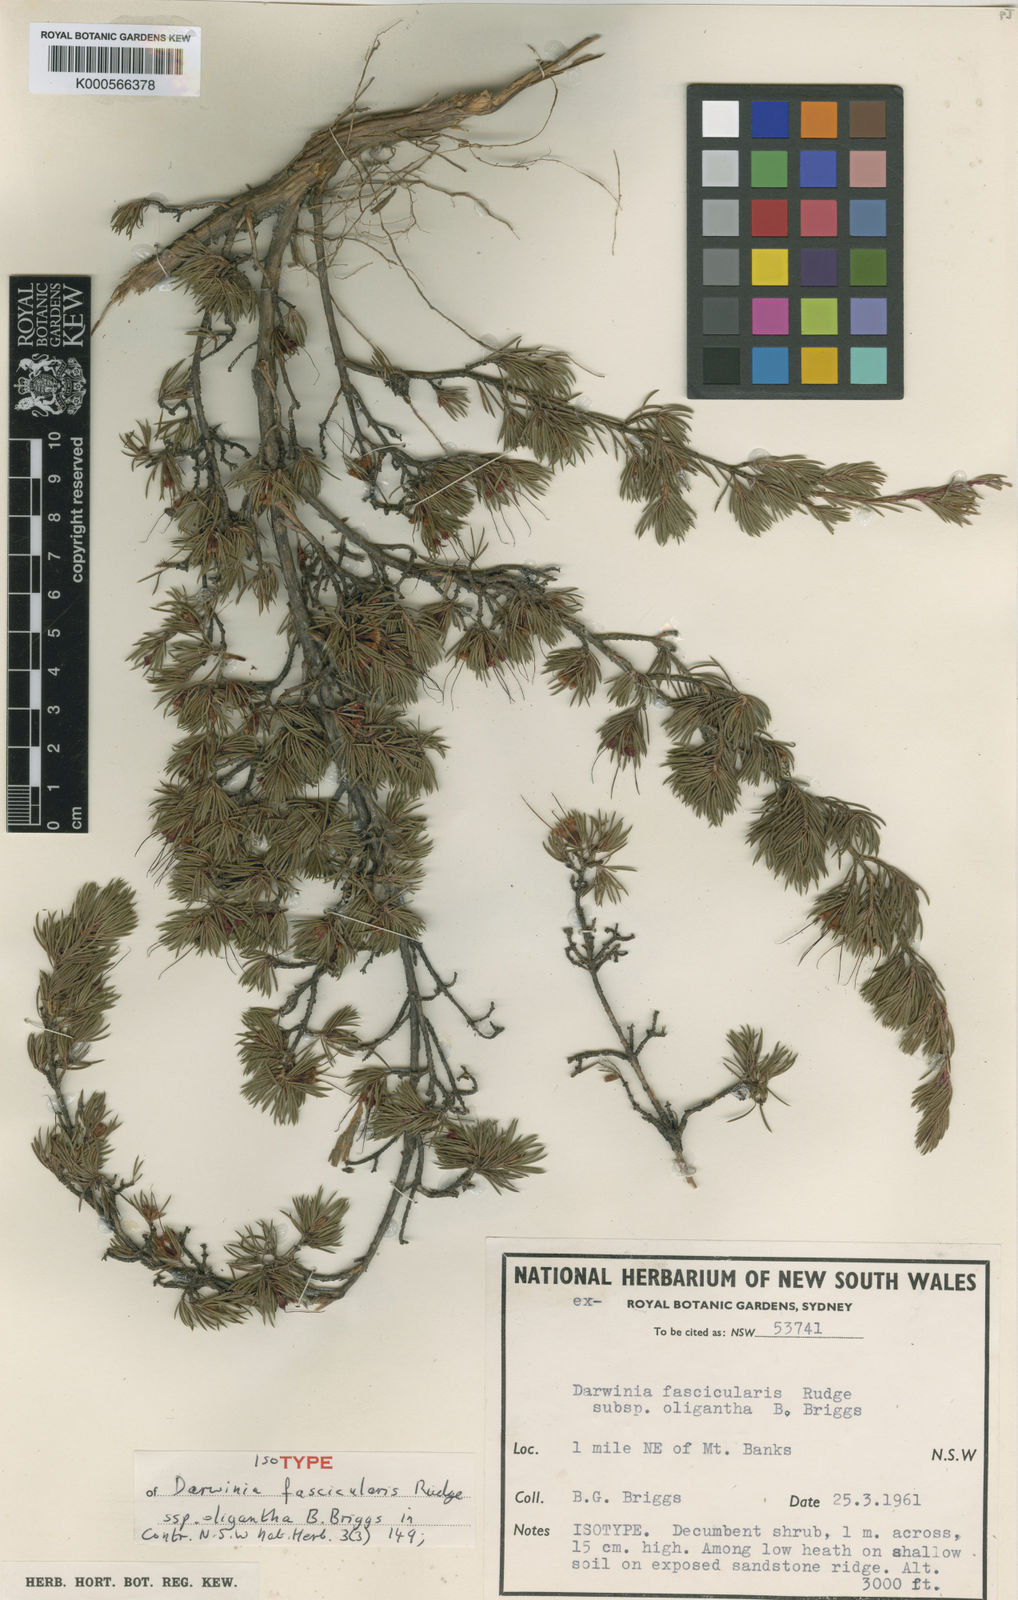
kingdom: Plantae
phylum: Tracheophyta
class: Magnoliopsida
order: Myrtales
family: Myrtaceae
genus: Darwinia
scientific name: Darwinia fascicularis
